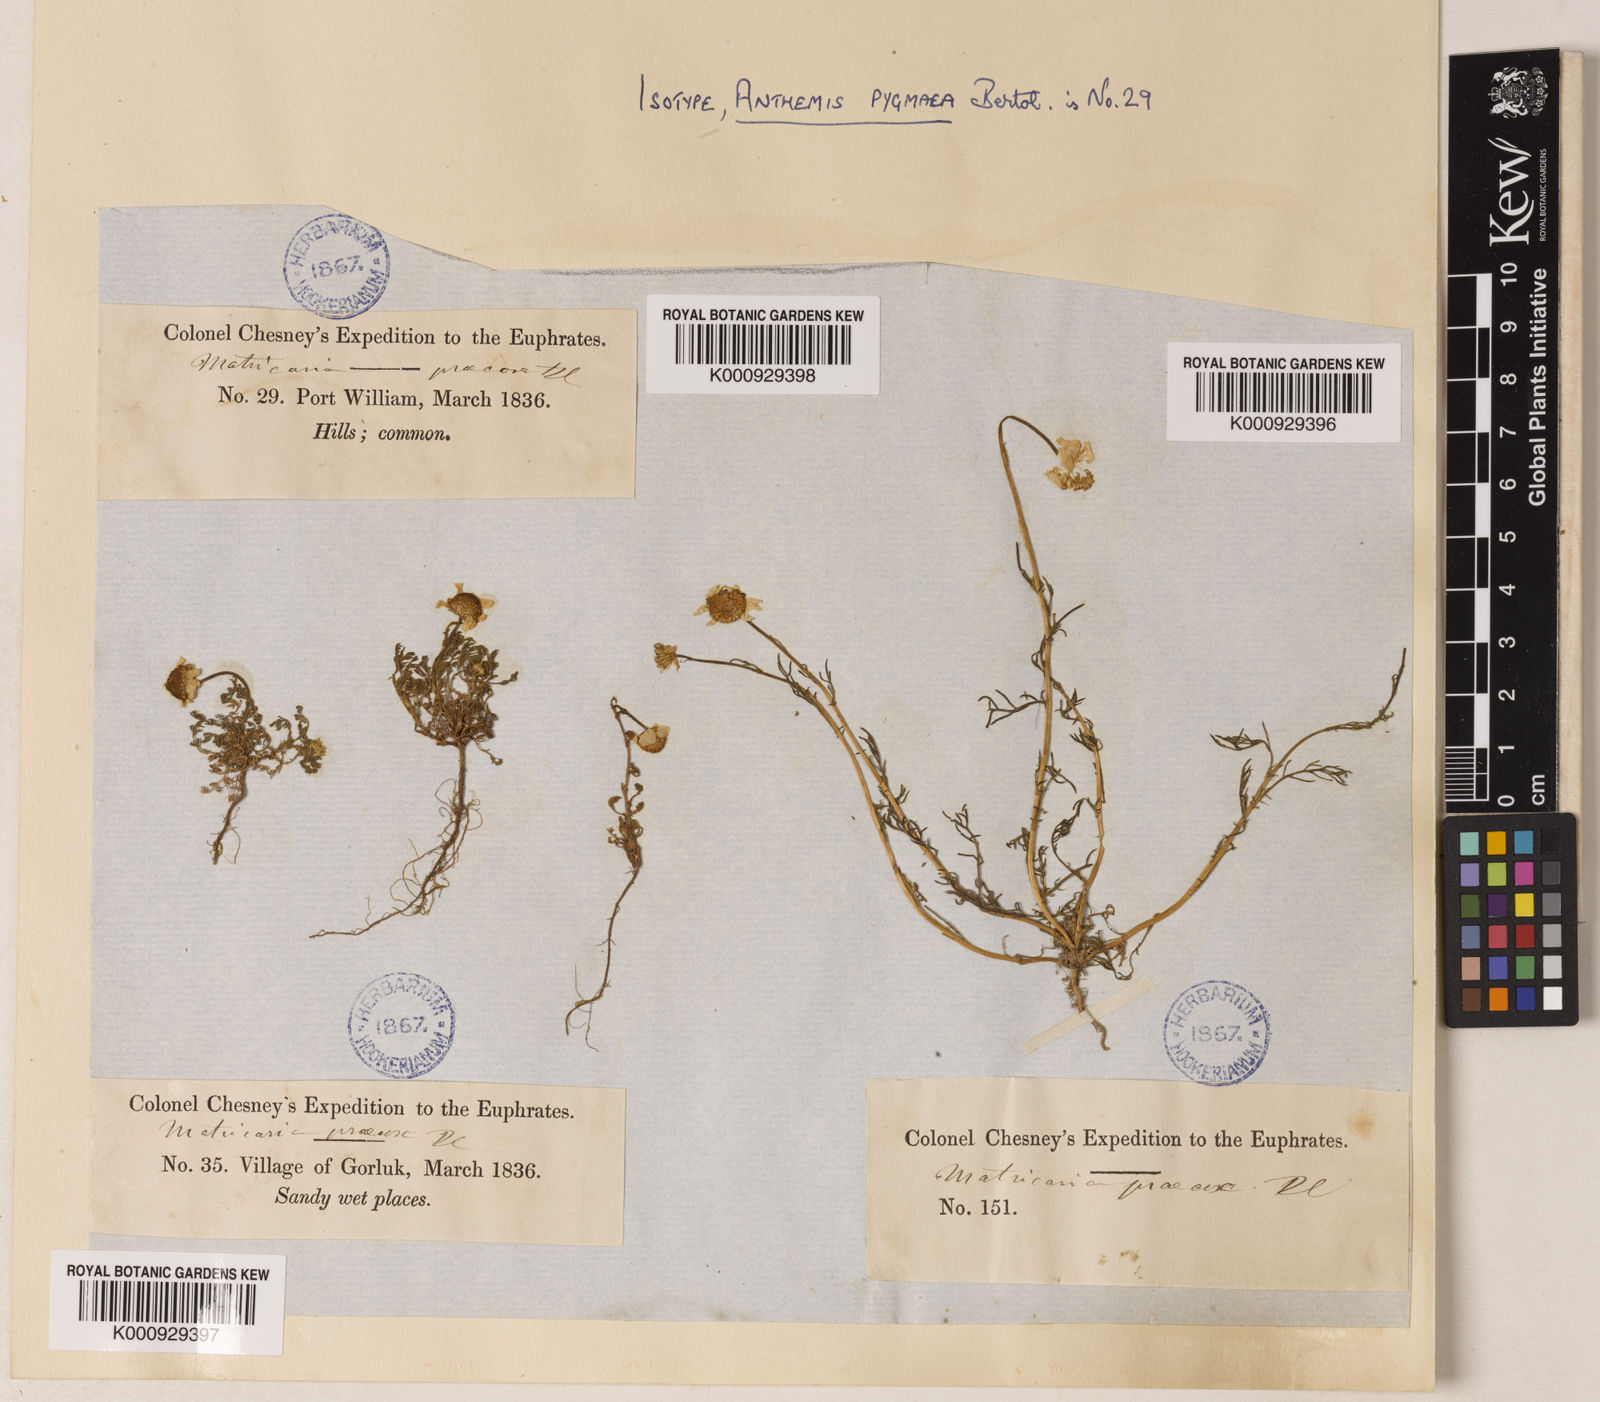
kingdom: Plantae
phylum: Tracheophyta
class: Magnoliopsida
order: Asterales
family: Asteraceae
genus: Tripleurospermum
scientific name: Tripleurospermum parviflorum
